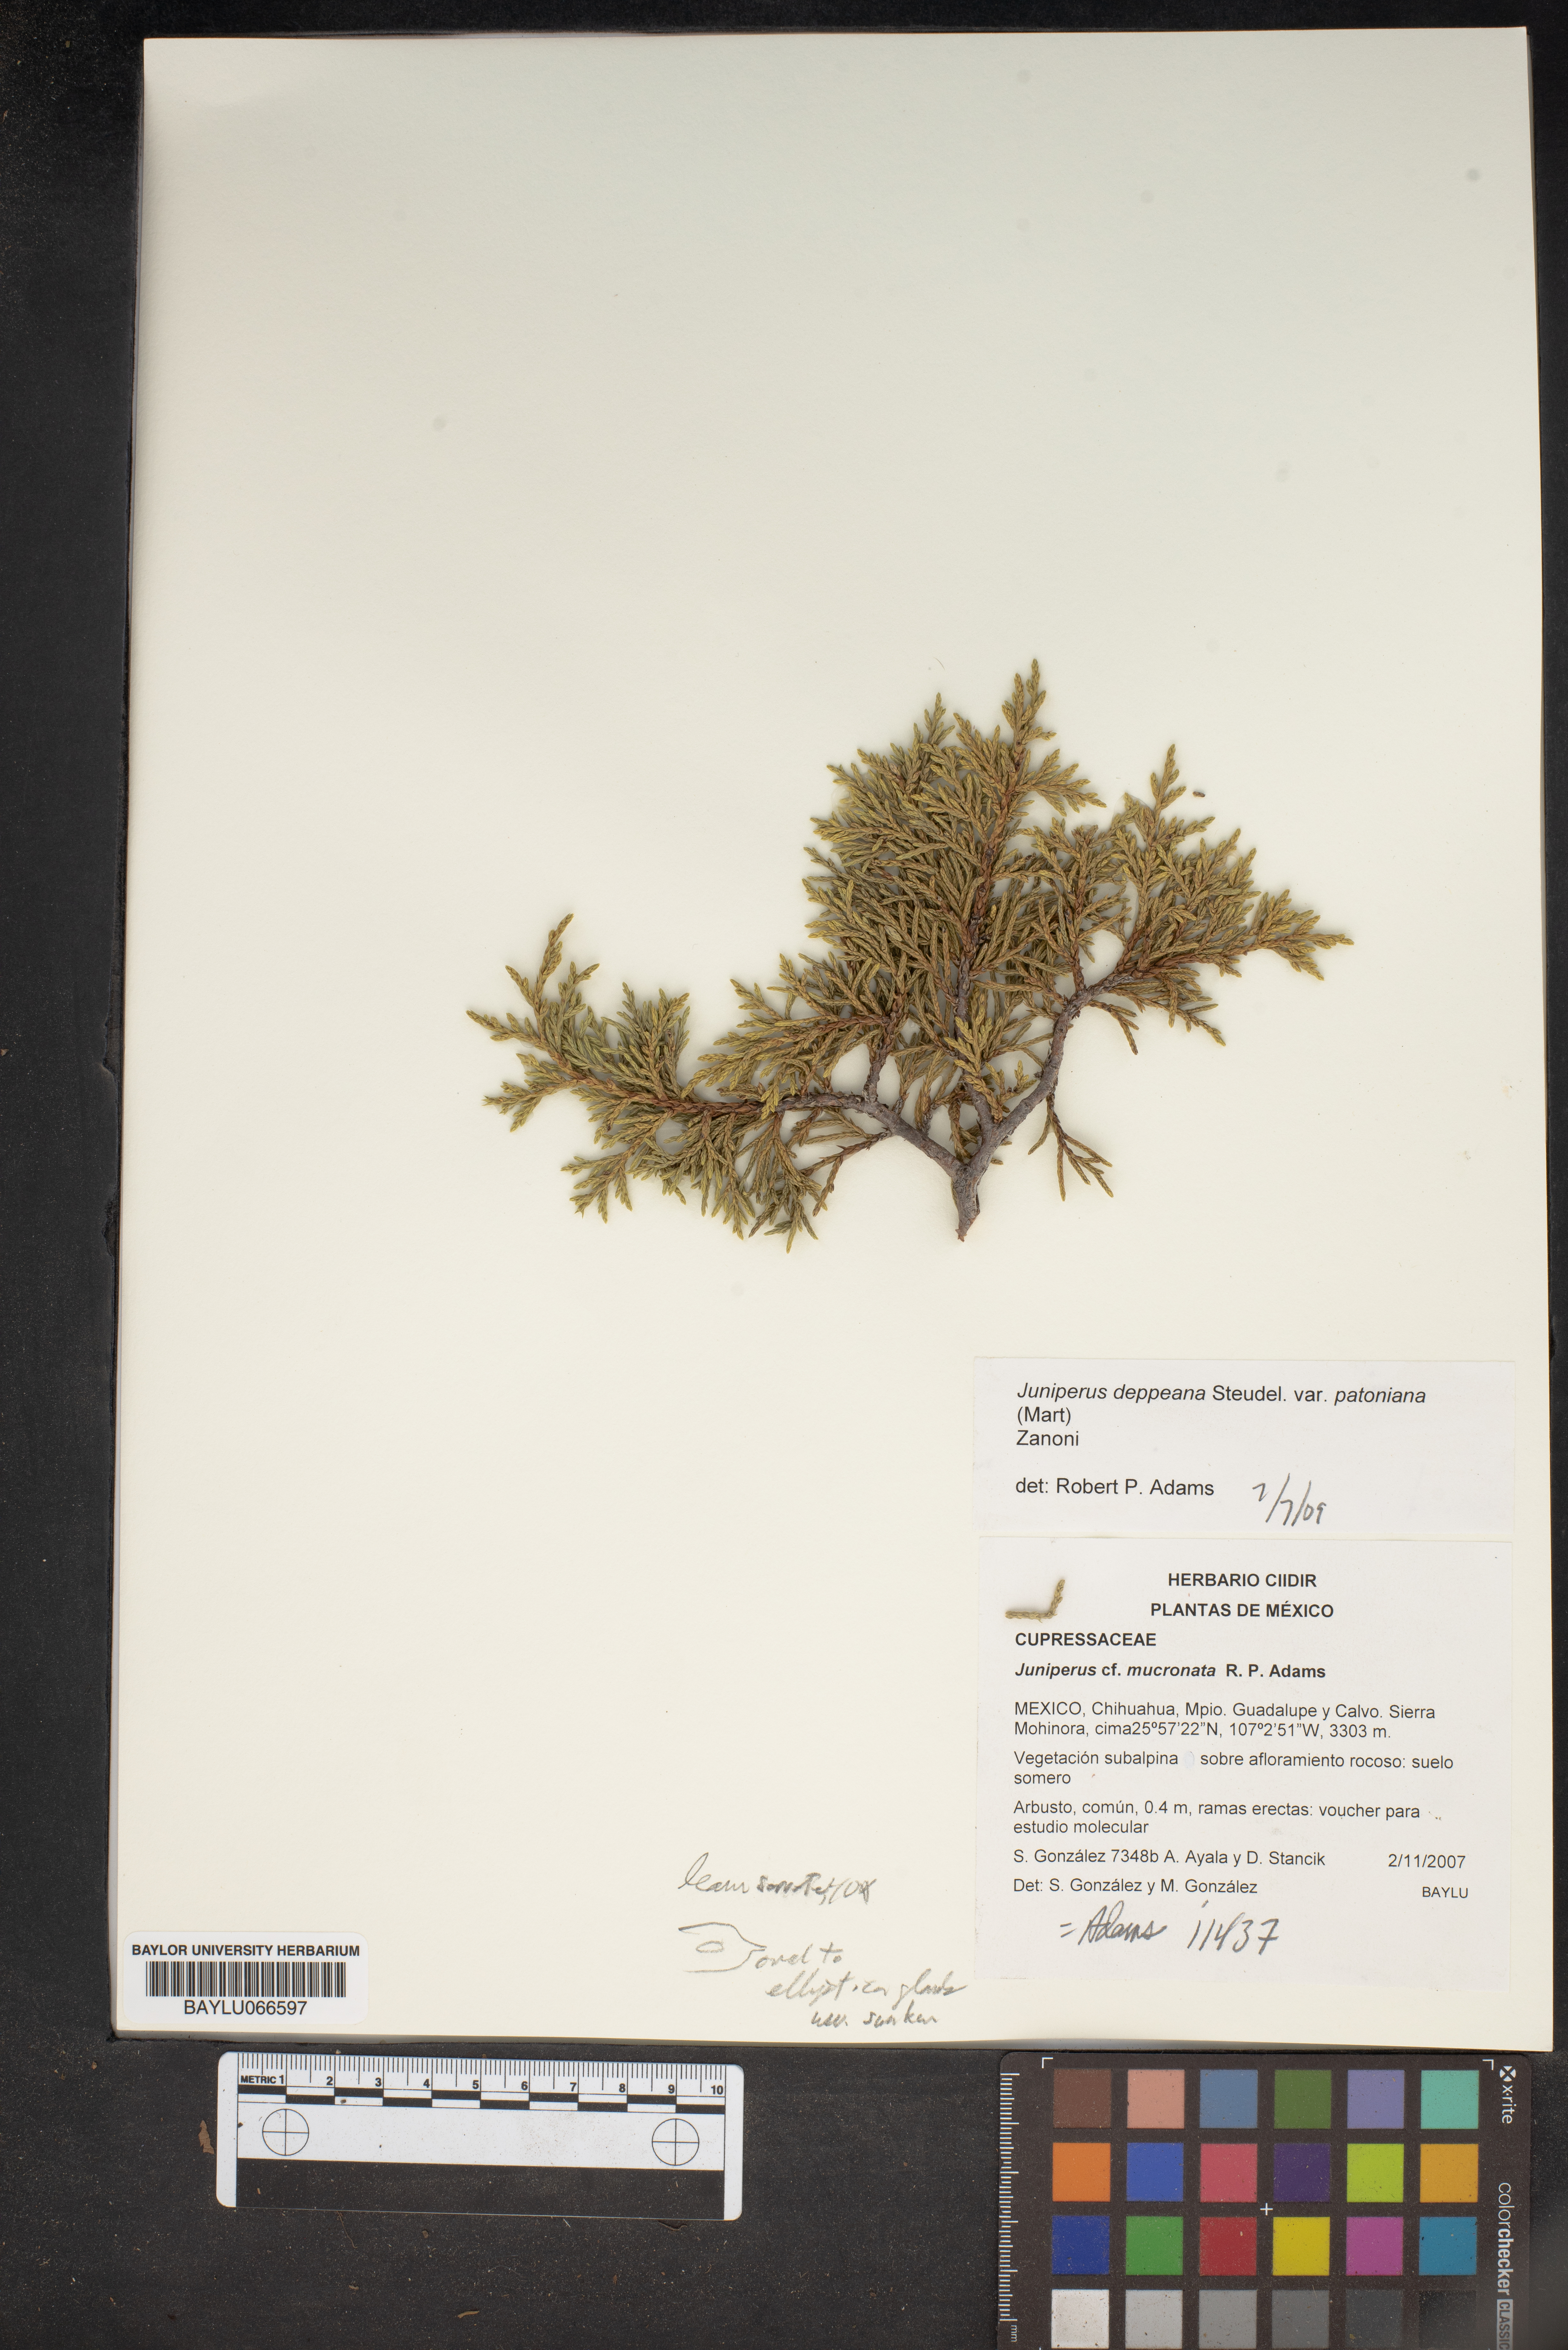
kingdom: Plantae
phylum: Tracheophyta
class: Pinopsida
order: Pinales
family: Cupressaceae
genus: Juniperus
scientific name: Juniperus deppeana
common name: Alligator juniper
